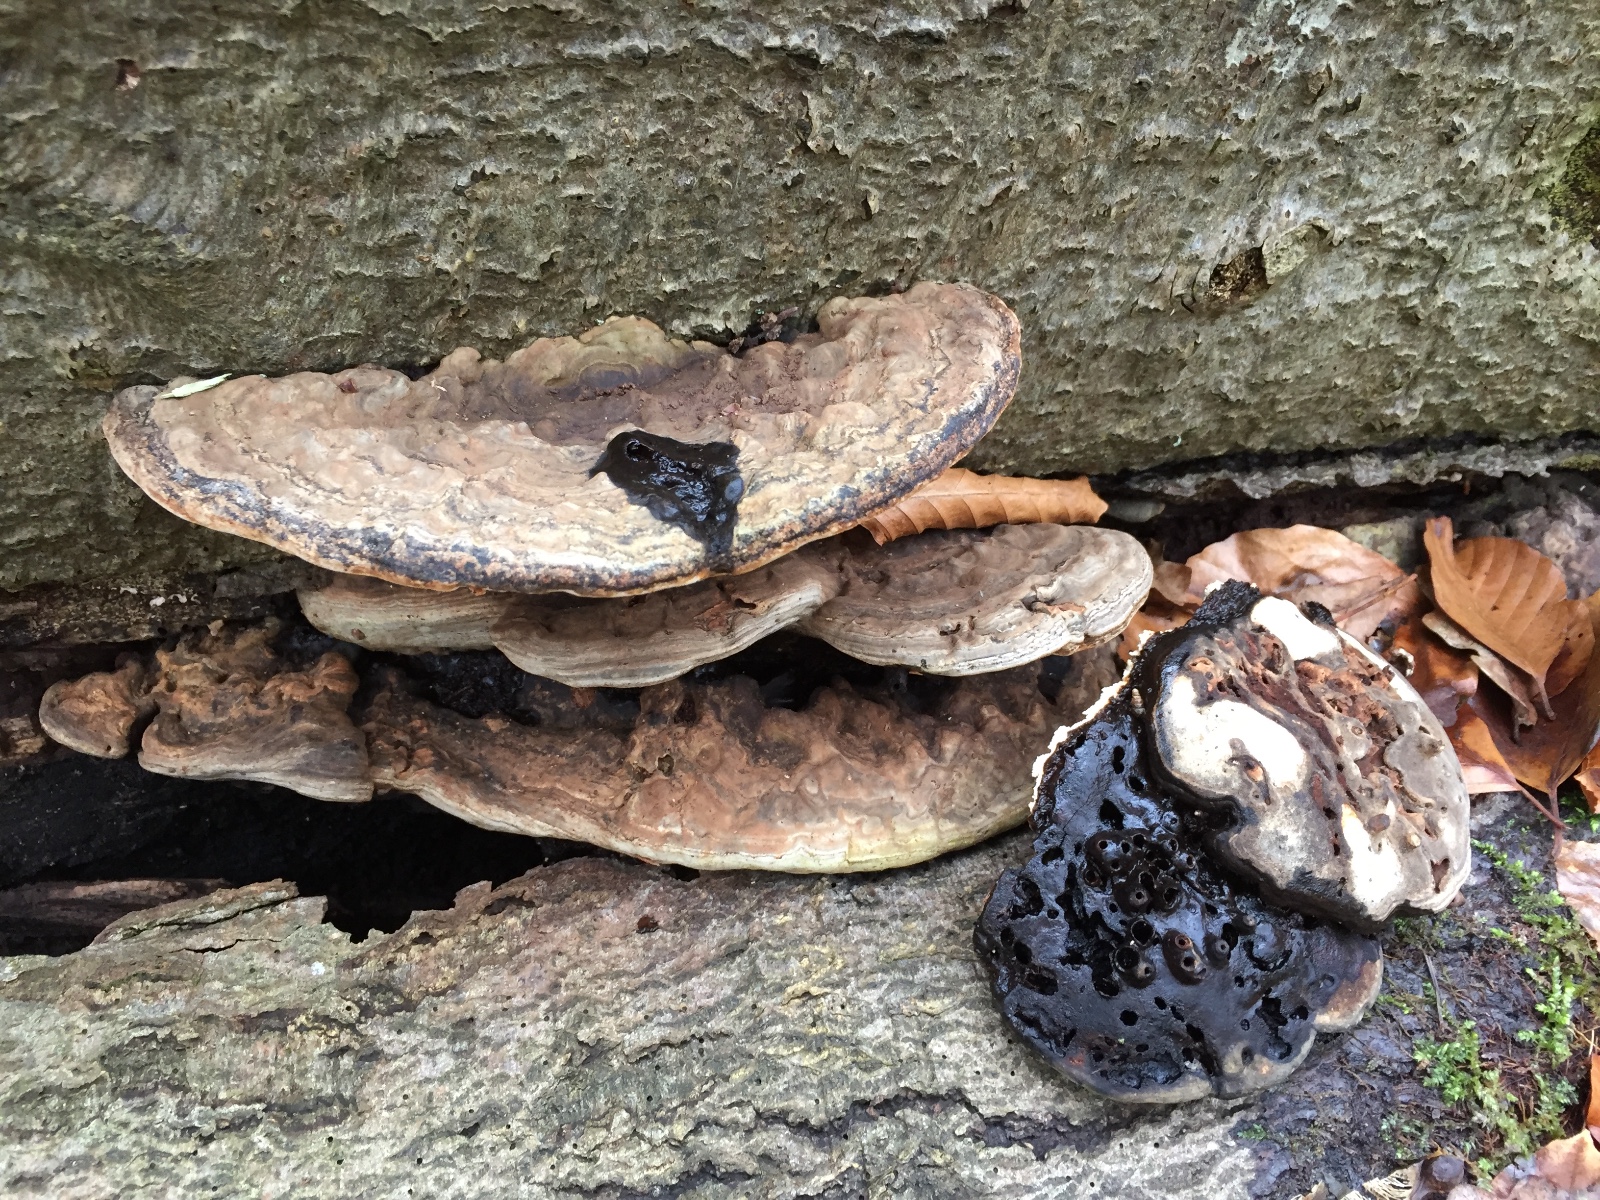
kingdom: Fungi
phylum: Basidiomycota
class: Agaricomycetes
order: Polyporales
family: Polyporaceae
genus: Ganoderma
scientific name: Ganoderma applanatum
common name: flad lakporesvamp
